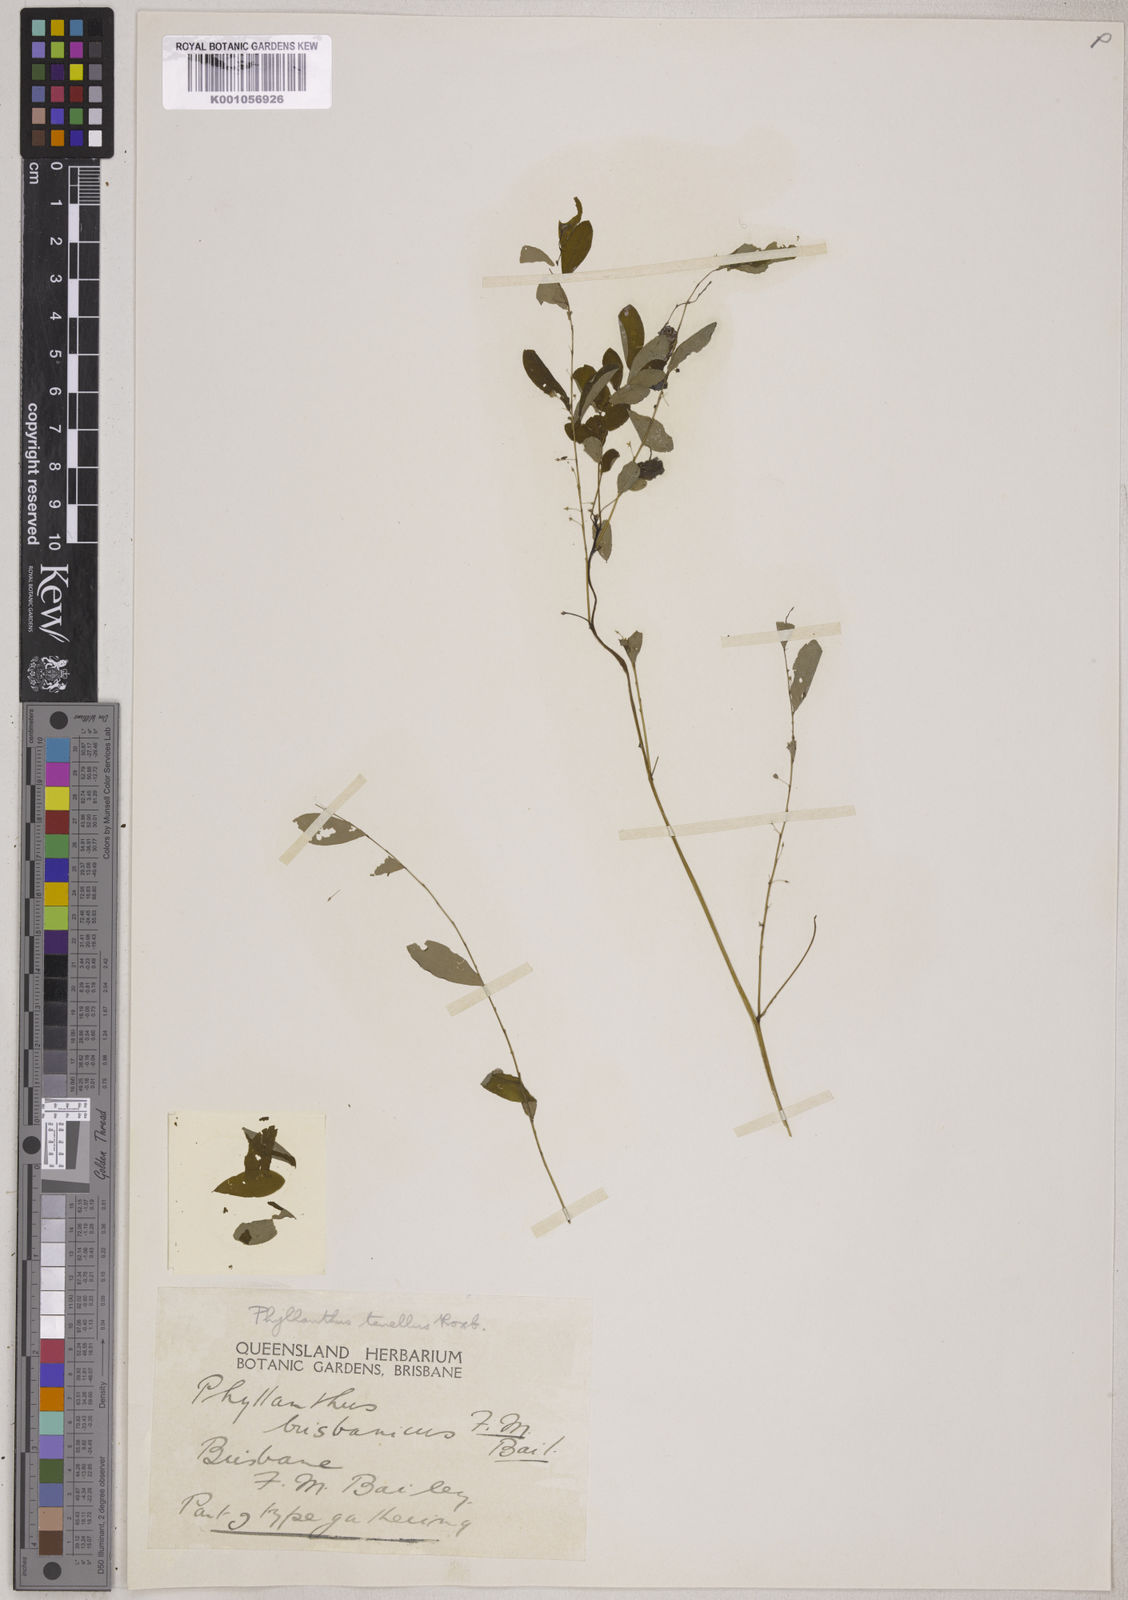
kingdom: Plantae
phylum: Tracheophyta
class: Magnoliopsida
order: Malpighiales
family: Phyllanthaceae
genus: Phyllanthus
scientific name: Phyllanthus tenellus
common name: Mascarene island leaf-flower
